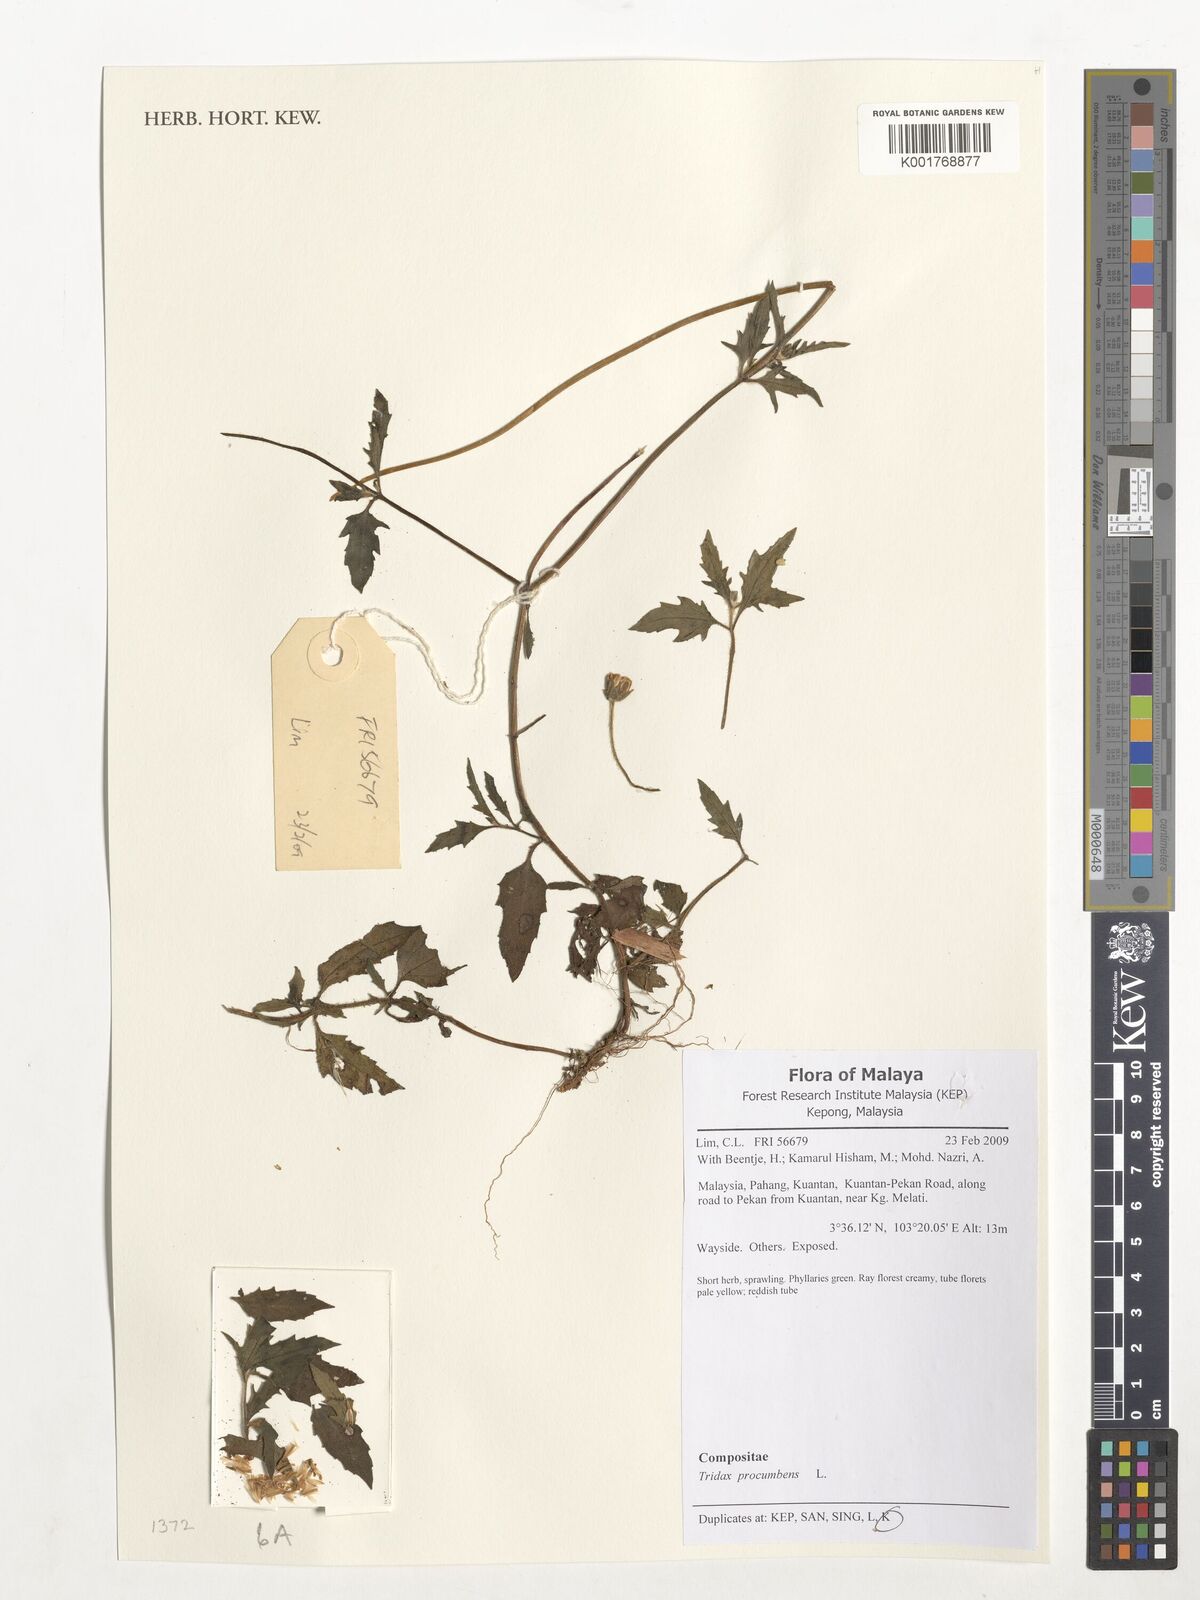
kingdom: Plantae
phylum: Tracheophyta
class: Magnoliopsida
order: Asterales
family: Asteraceae
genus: Tridax
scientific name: Tridax procumbens
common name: Coatbuttons
